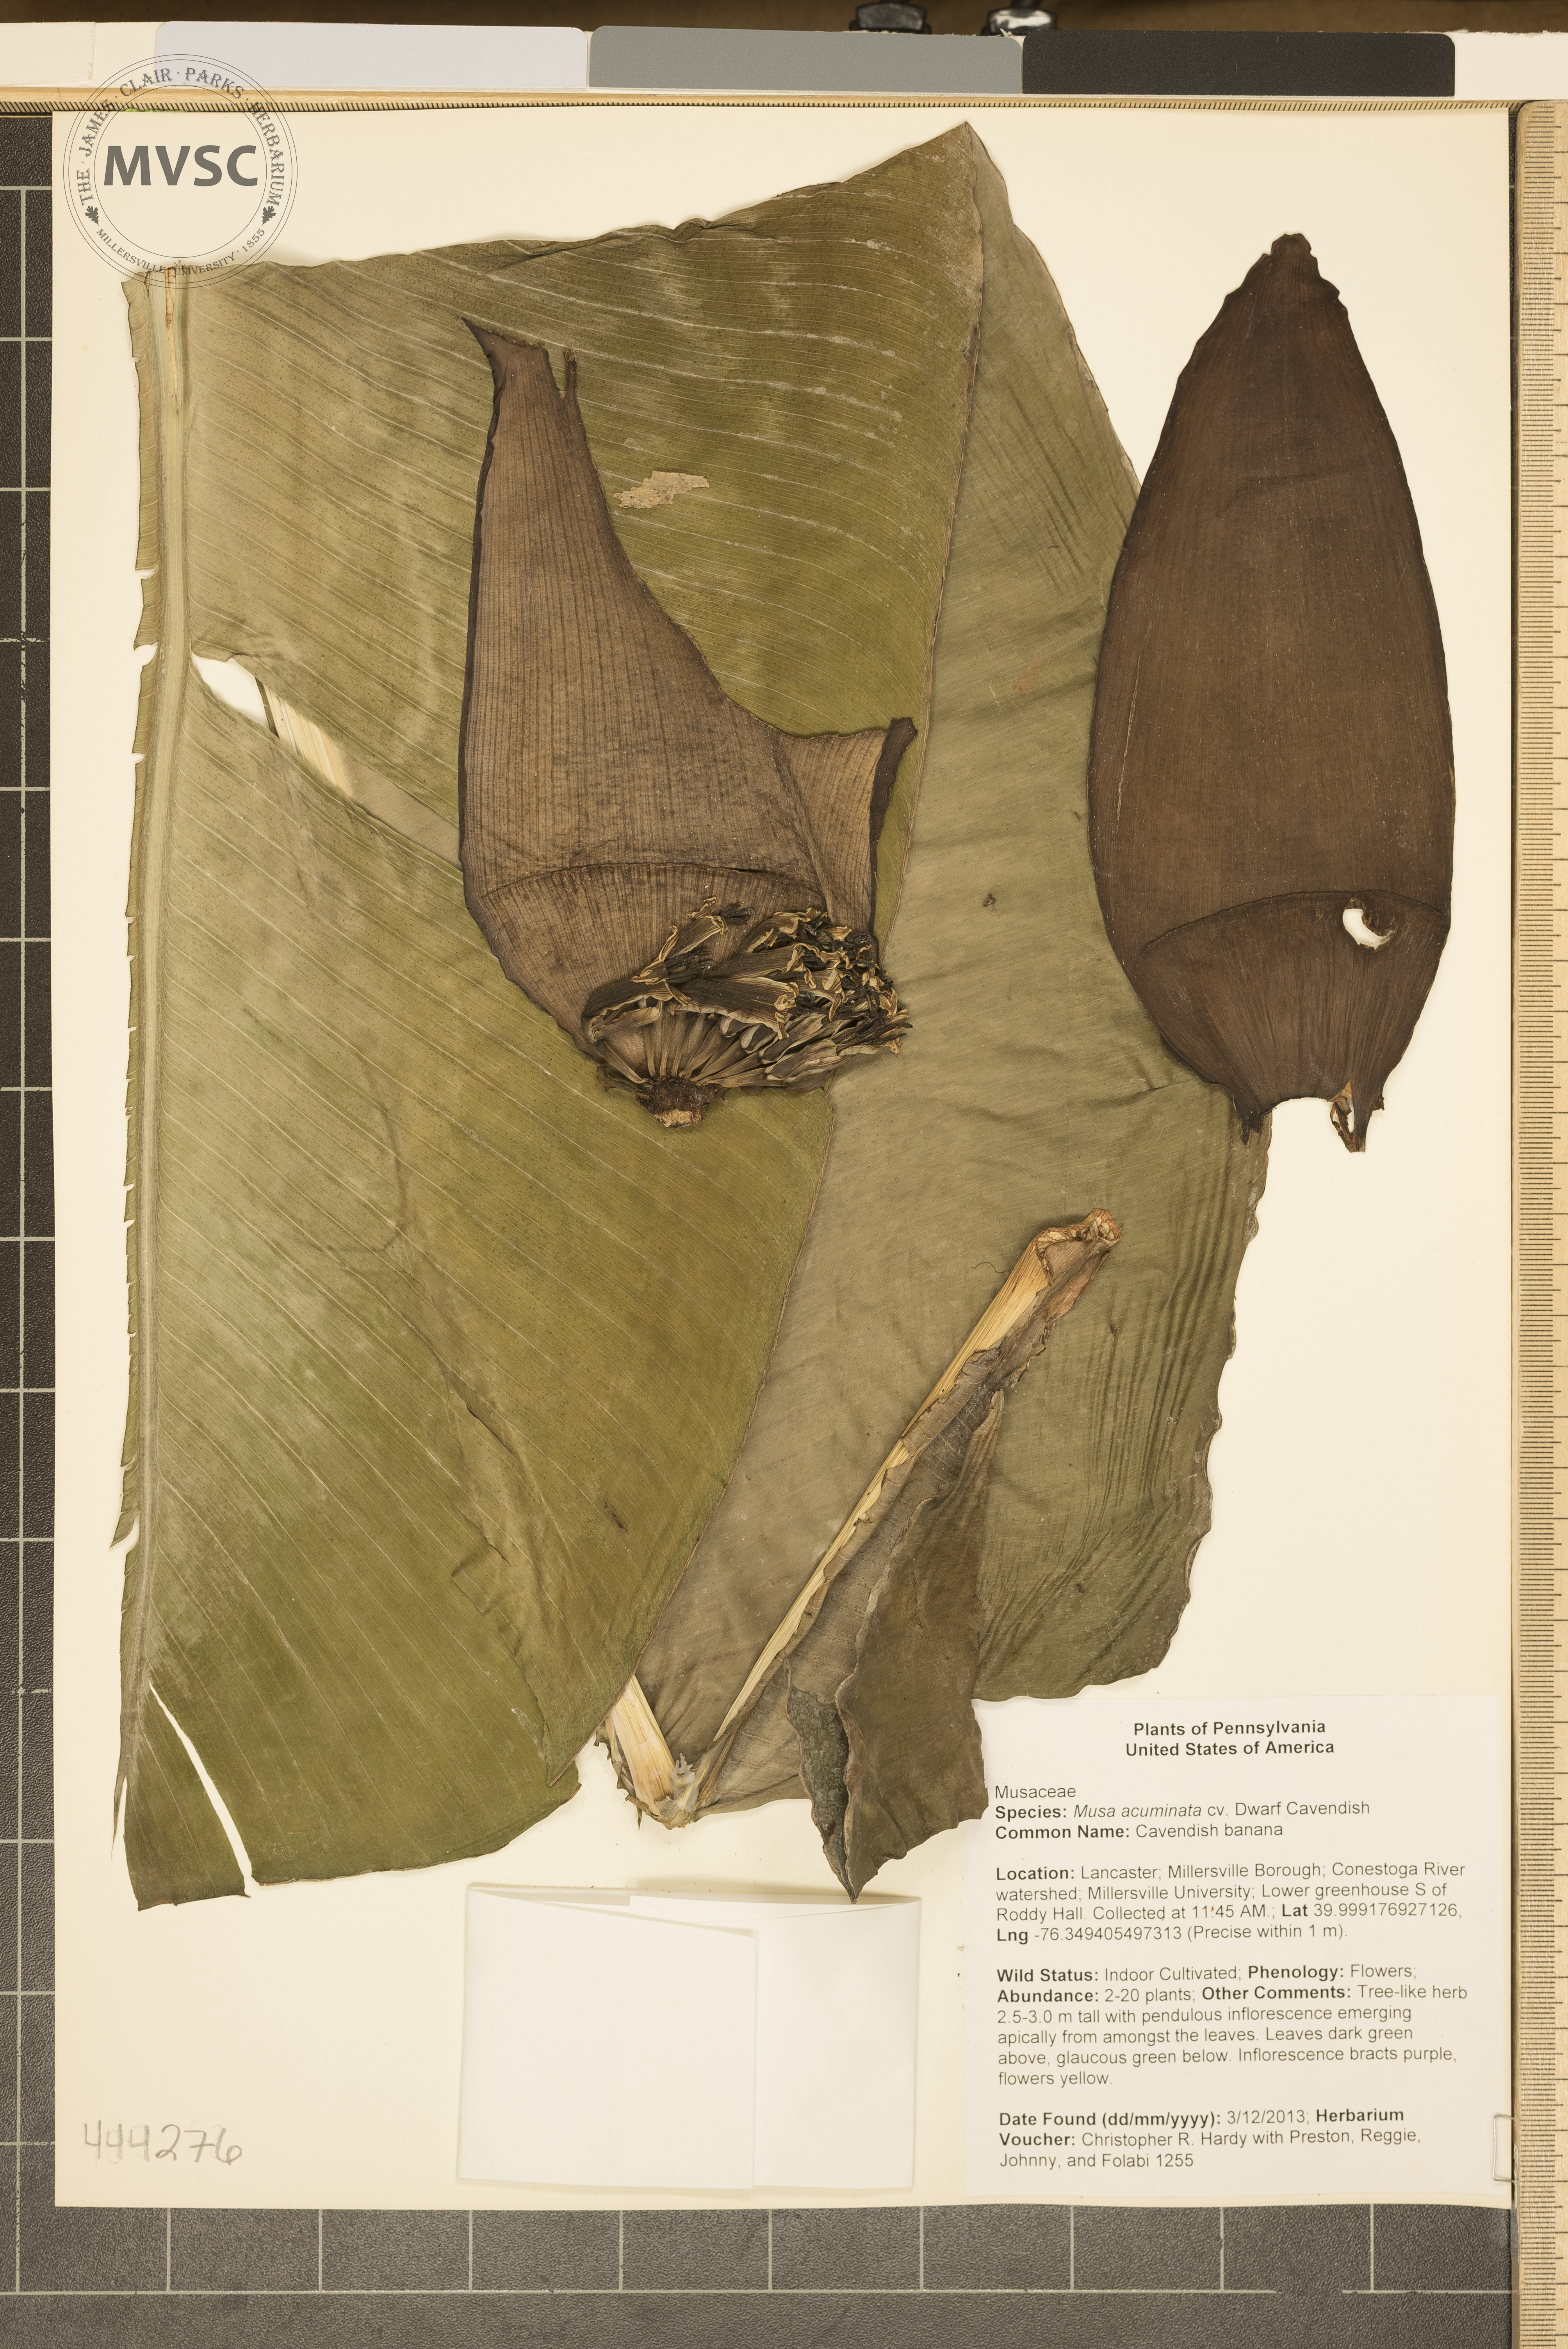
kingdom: Plantae
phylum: Tracheophyta
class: Liliopsida
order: Zingiberales
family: Musaceae
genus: Musa
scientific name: Musa acuminata
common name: Cavendish Banana
